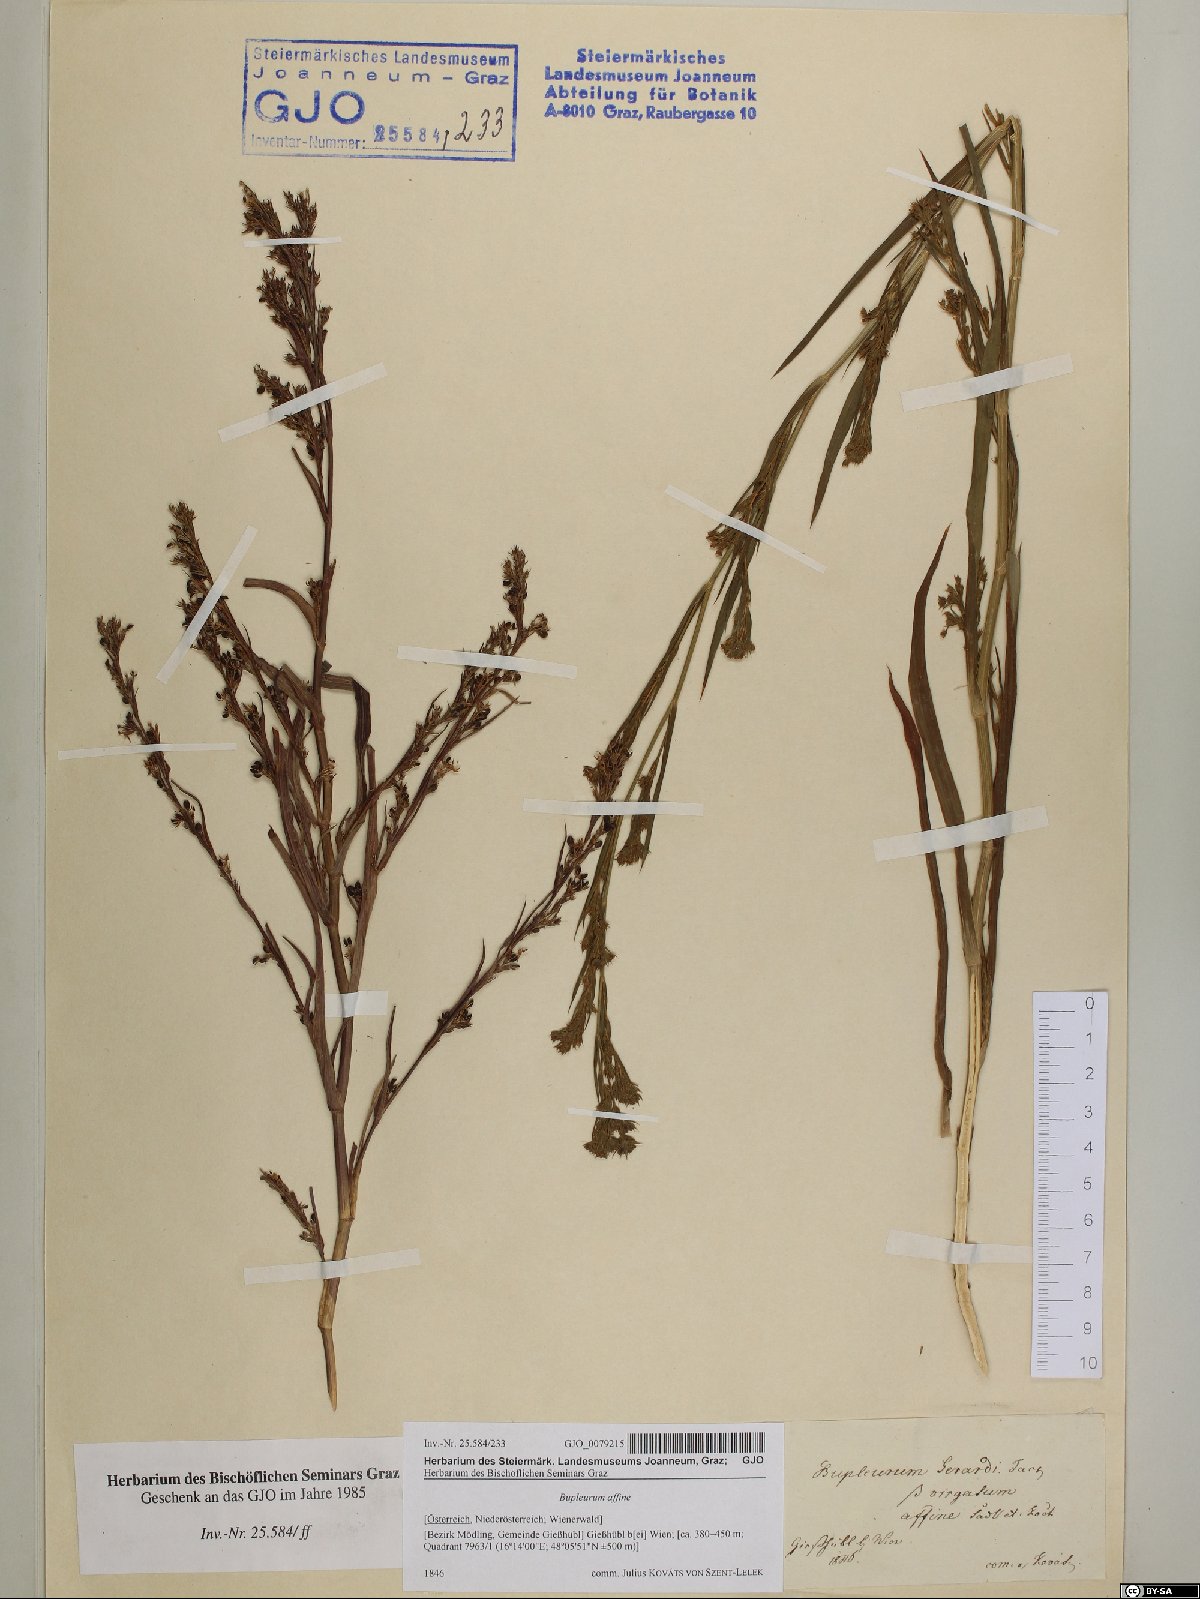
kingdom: Plantae
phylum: Tracheophyta
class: Magnoliopsida
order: Apiales
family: Apiaceae
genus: Bupleurum
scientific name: Bupleurum affine
